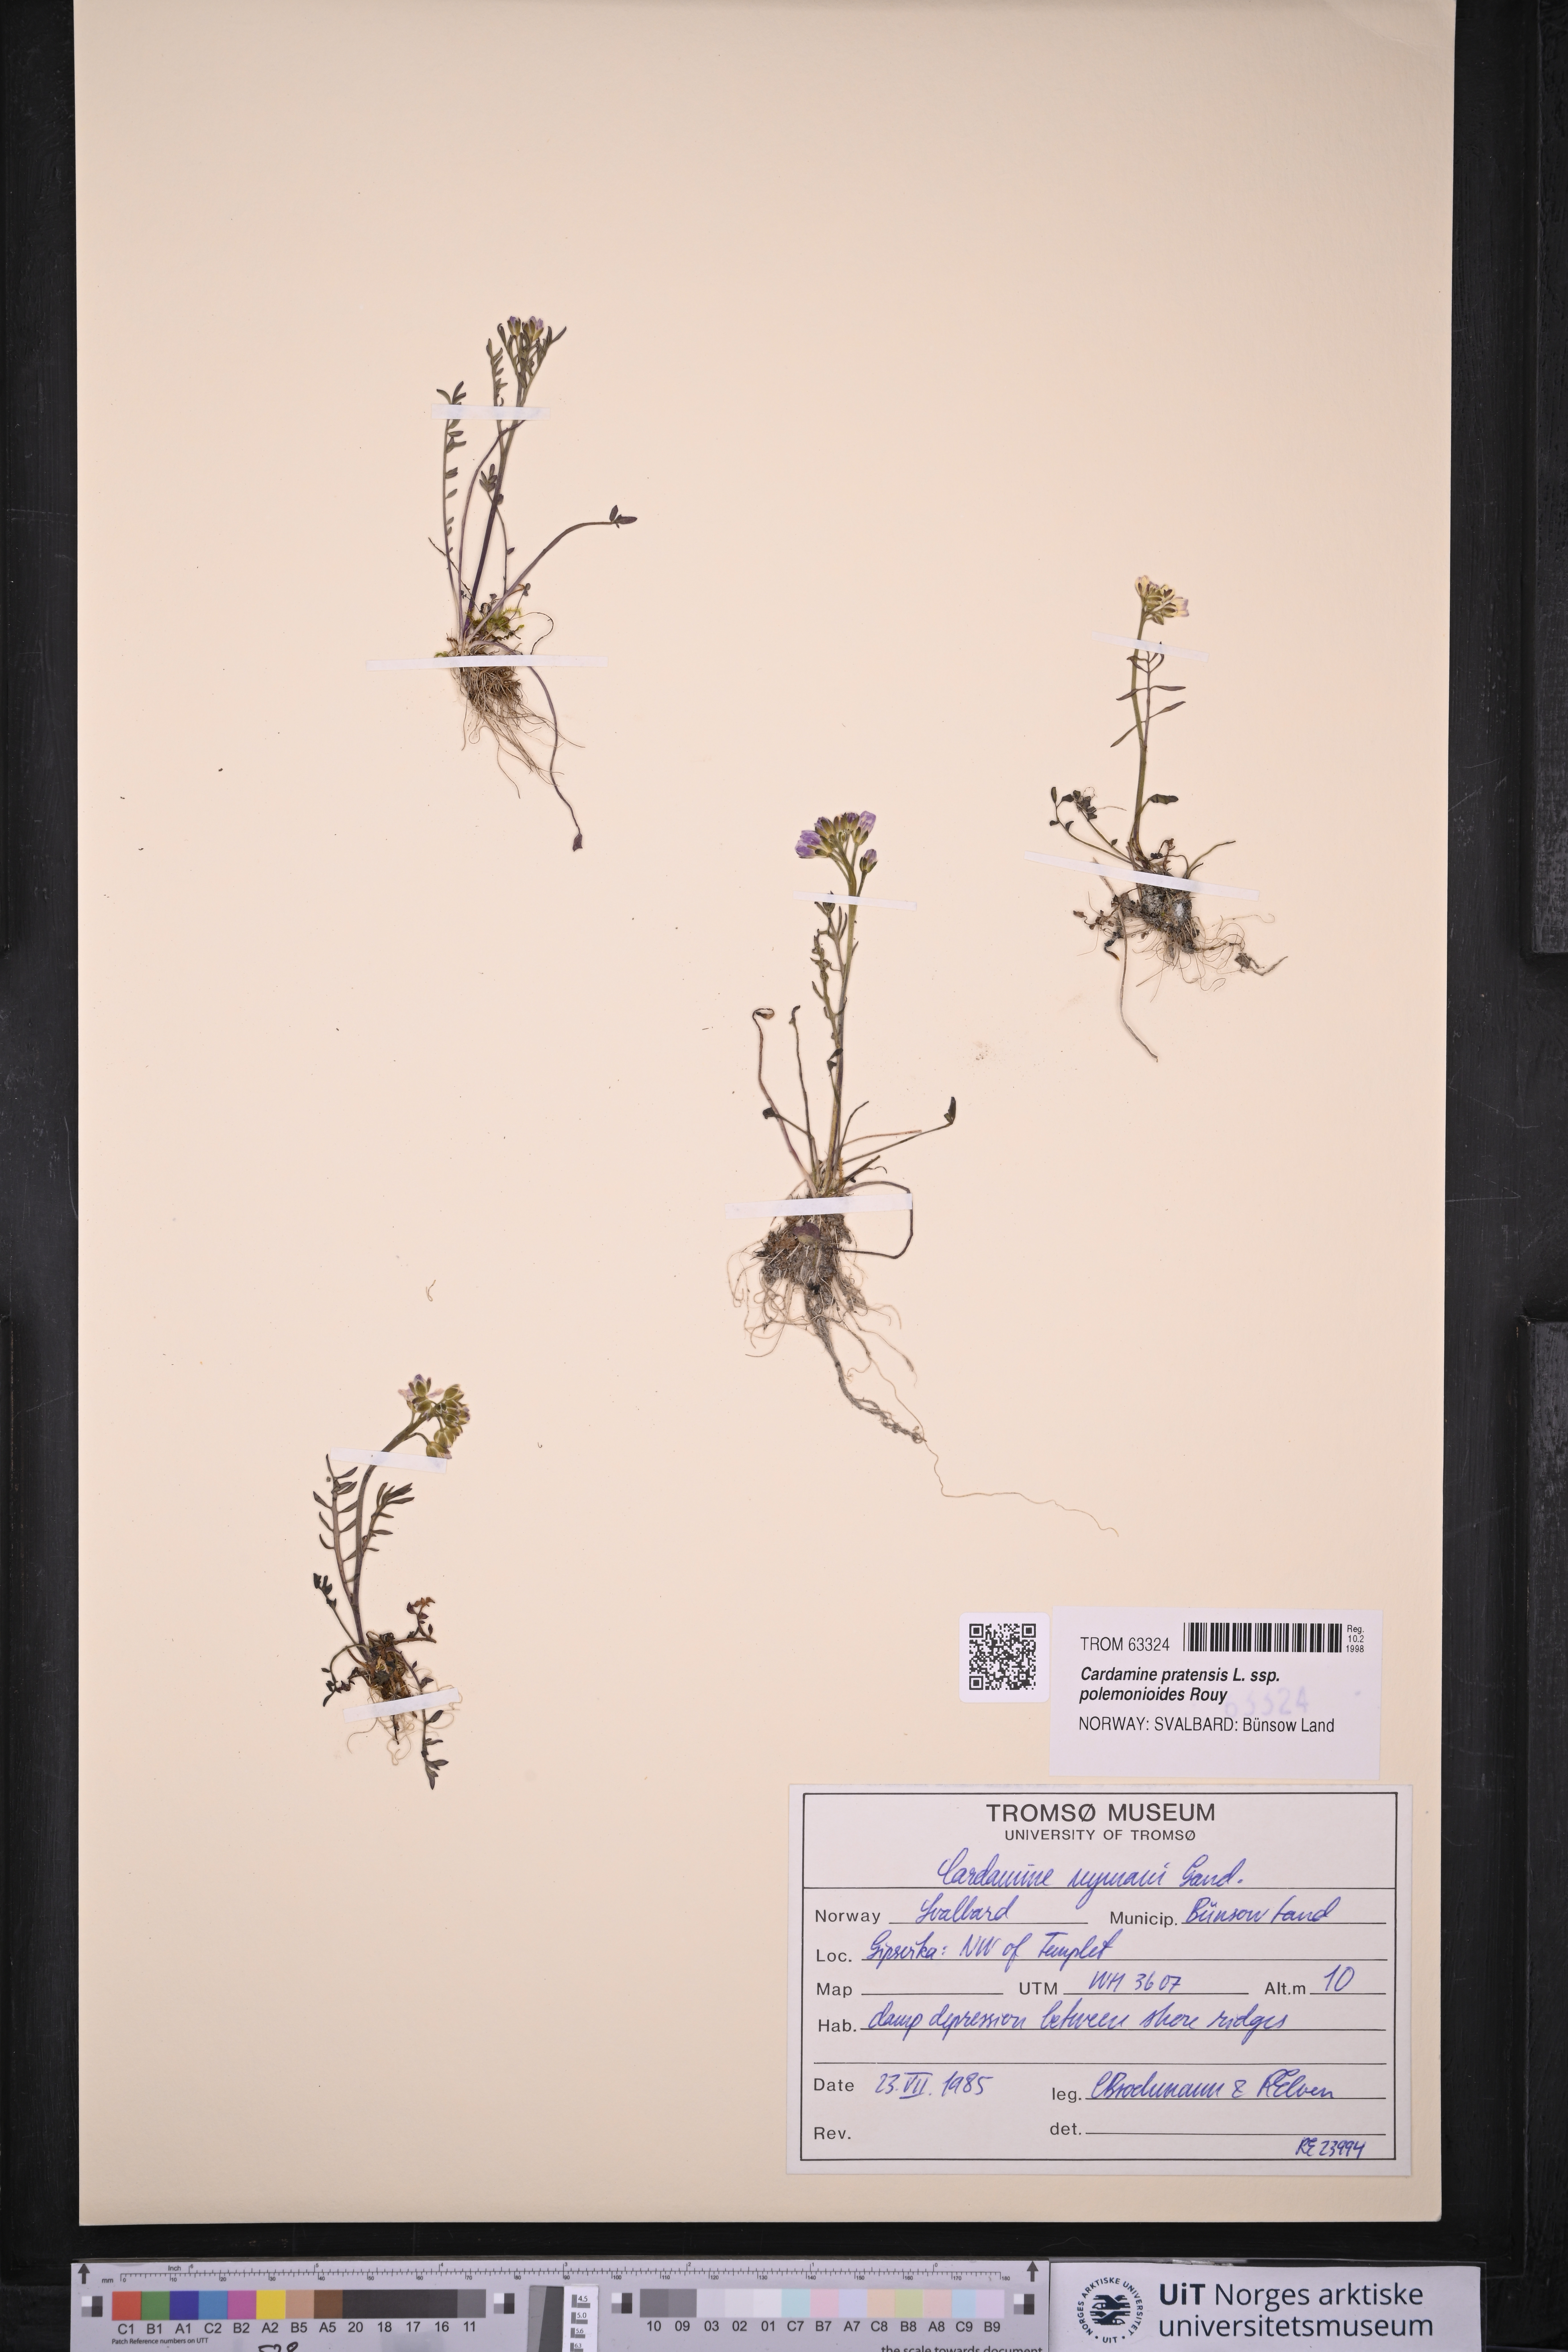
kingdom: Plantae
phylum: Tracheophyta
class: Magnoliopsida
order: Brassicales
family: Brassicaceae
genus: Cardamine
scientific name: Cardamine nymanii
